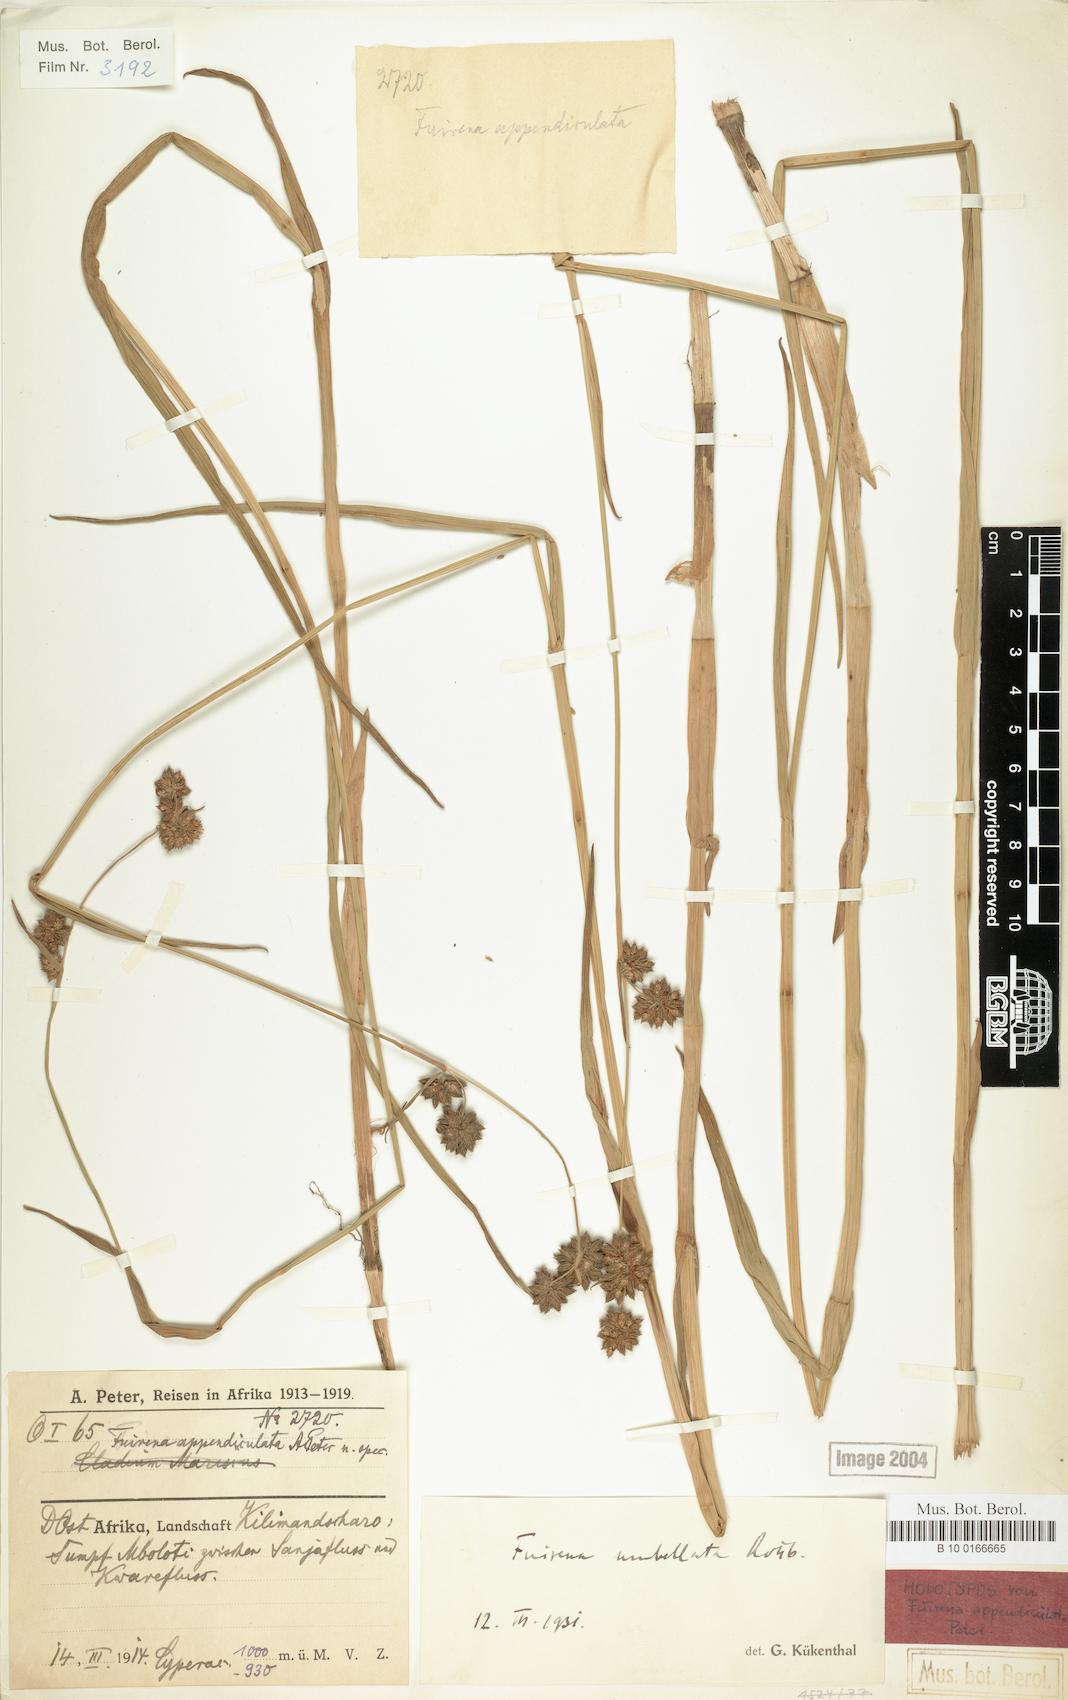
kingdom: Plantae
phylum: Tracheophyta
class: Liliopsida
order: Poales
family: Cyperaceae
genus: Fuirena
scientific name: Fuirena umbellata
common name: Yefen
